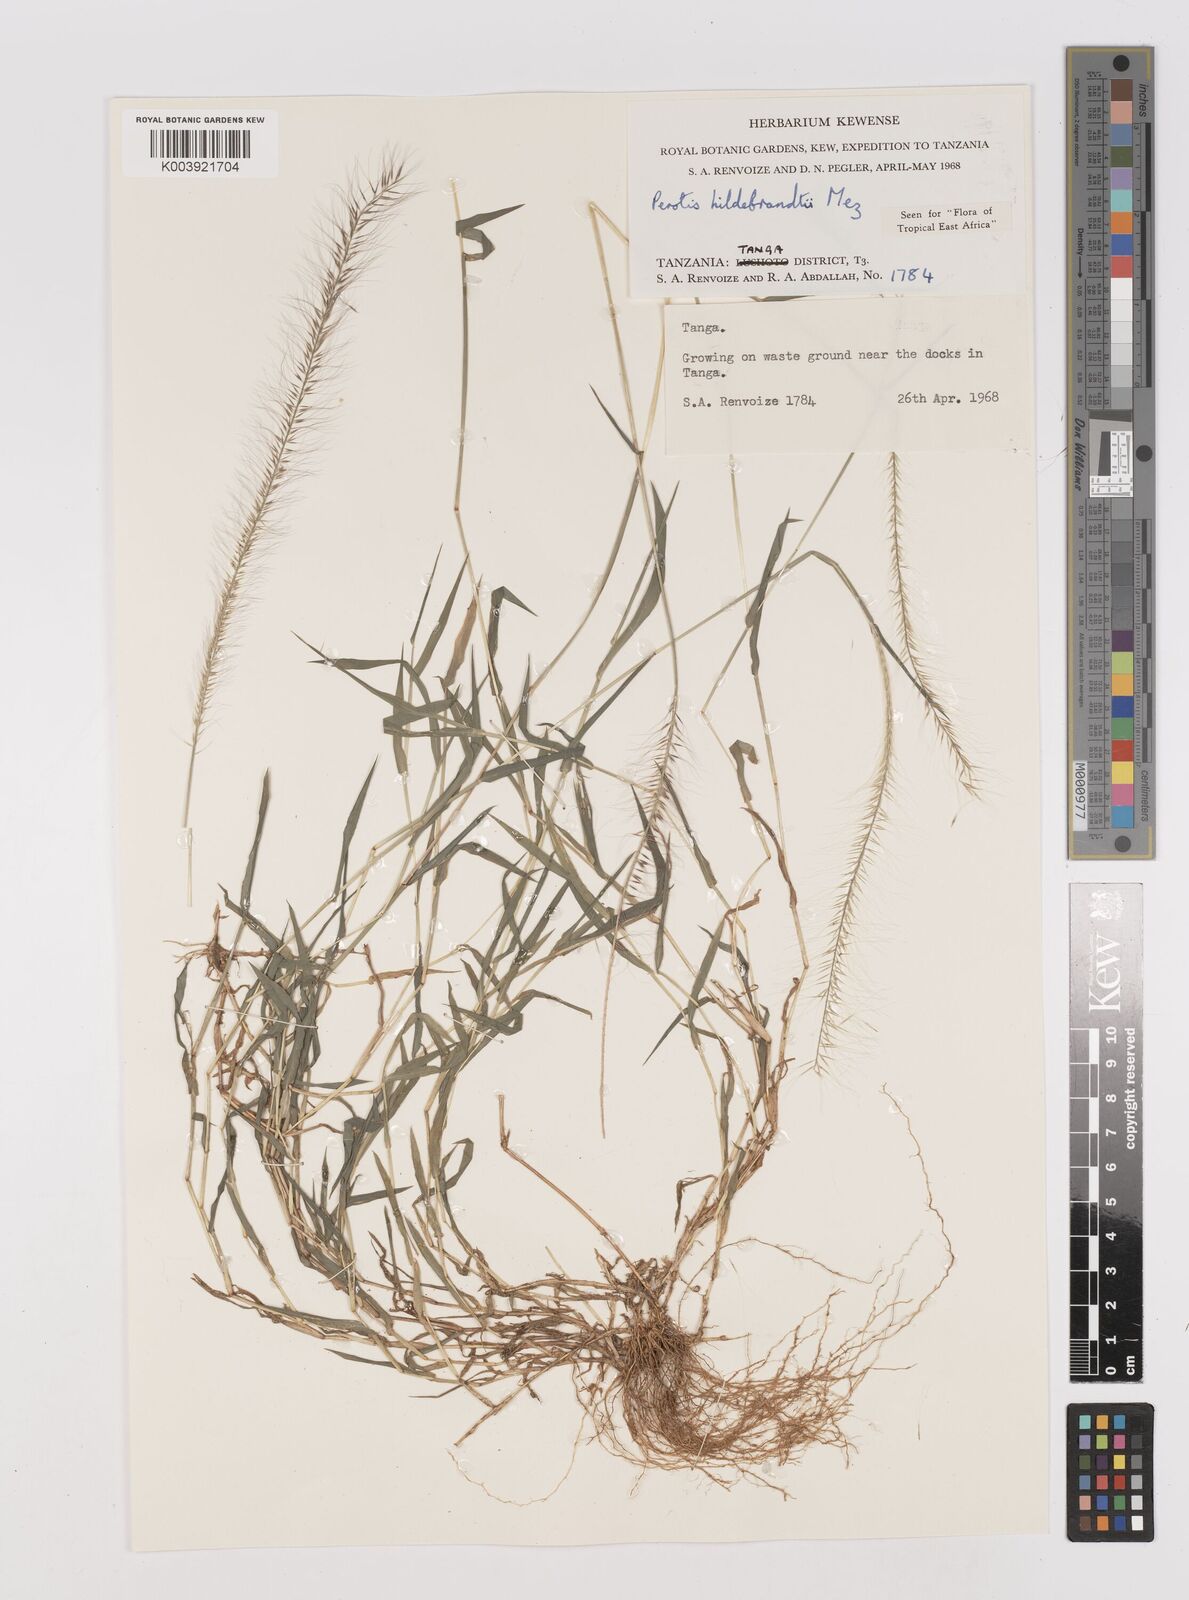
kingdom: Plantae
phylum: Tracheophyta
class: Liliopsida
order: Poales
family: Poaceae
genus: Perotis
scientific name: Perotis hildebrandtii
